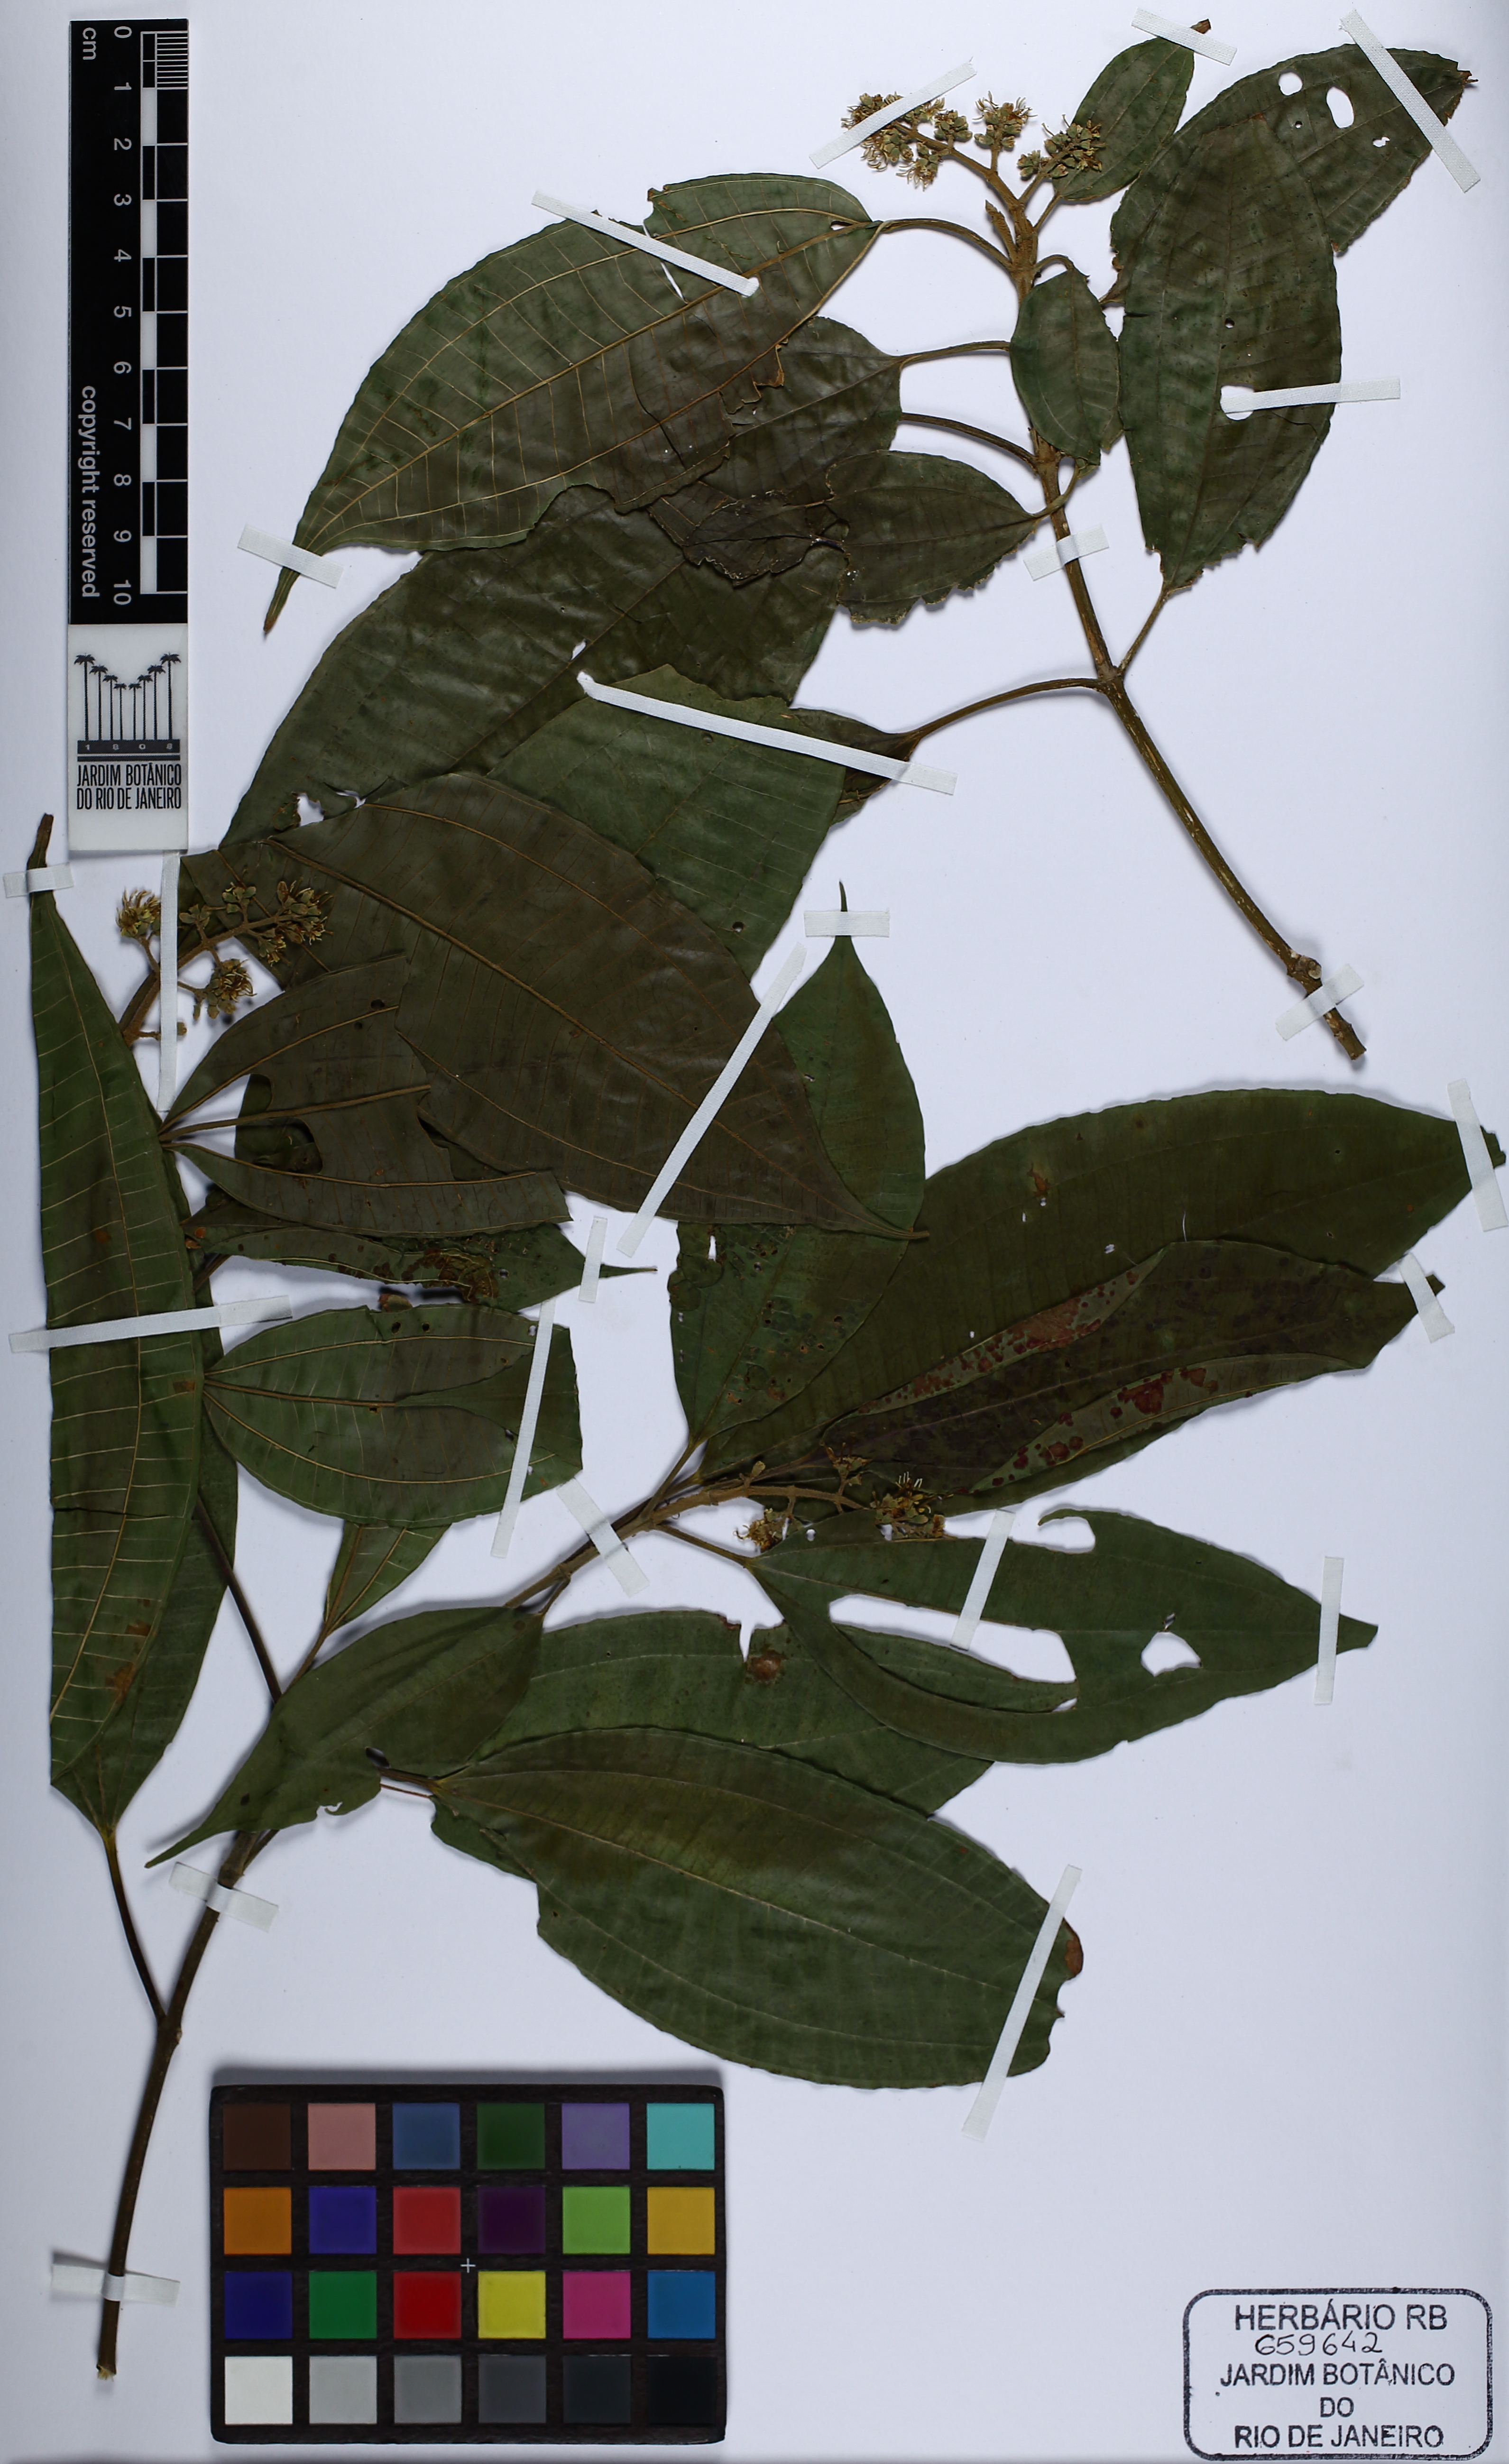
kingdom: Plantae
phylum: Tracheophyta
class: Magnoliopsida
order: Myrtales
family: Melastomataceae
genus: Miconia
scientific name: Miconia latecrenata
